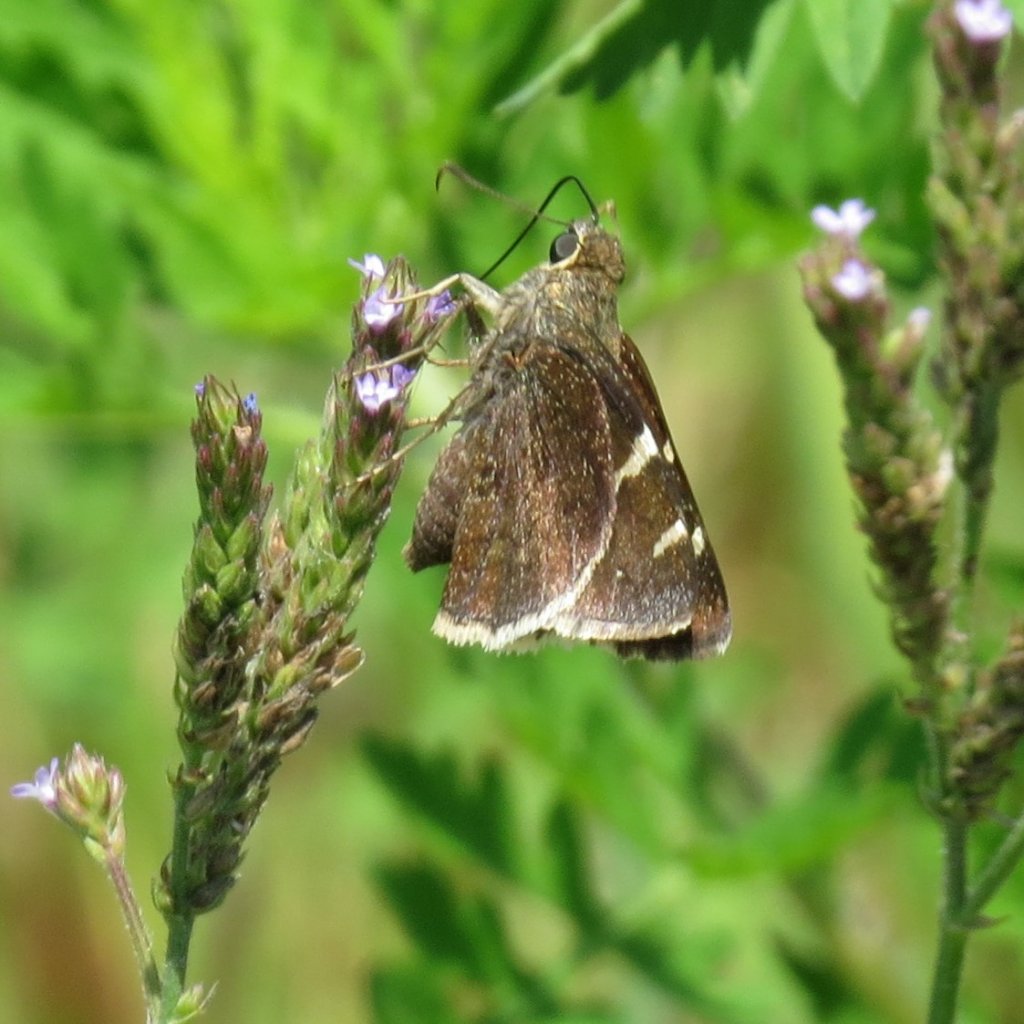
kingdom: Animalia
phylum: Arthropoda
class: Insecta
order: Lepidoptera
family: Hesperiidae
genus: Erynnis
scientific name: Erynnis funeralis
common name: Funereal Duskywing
